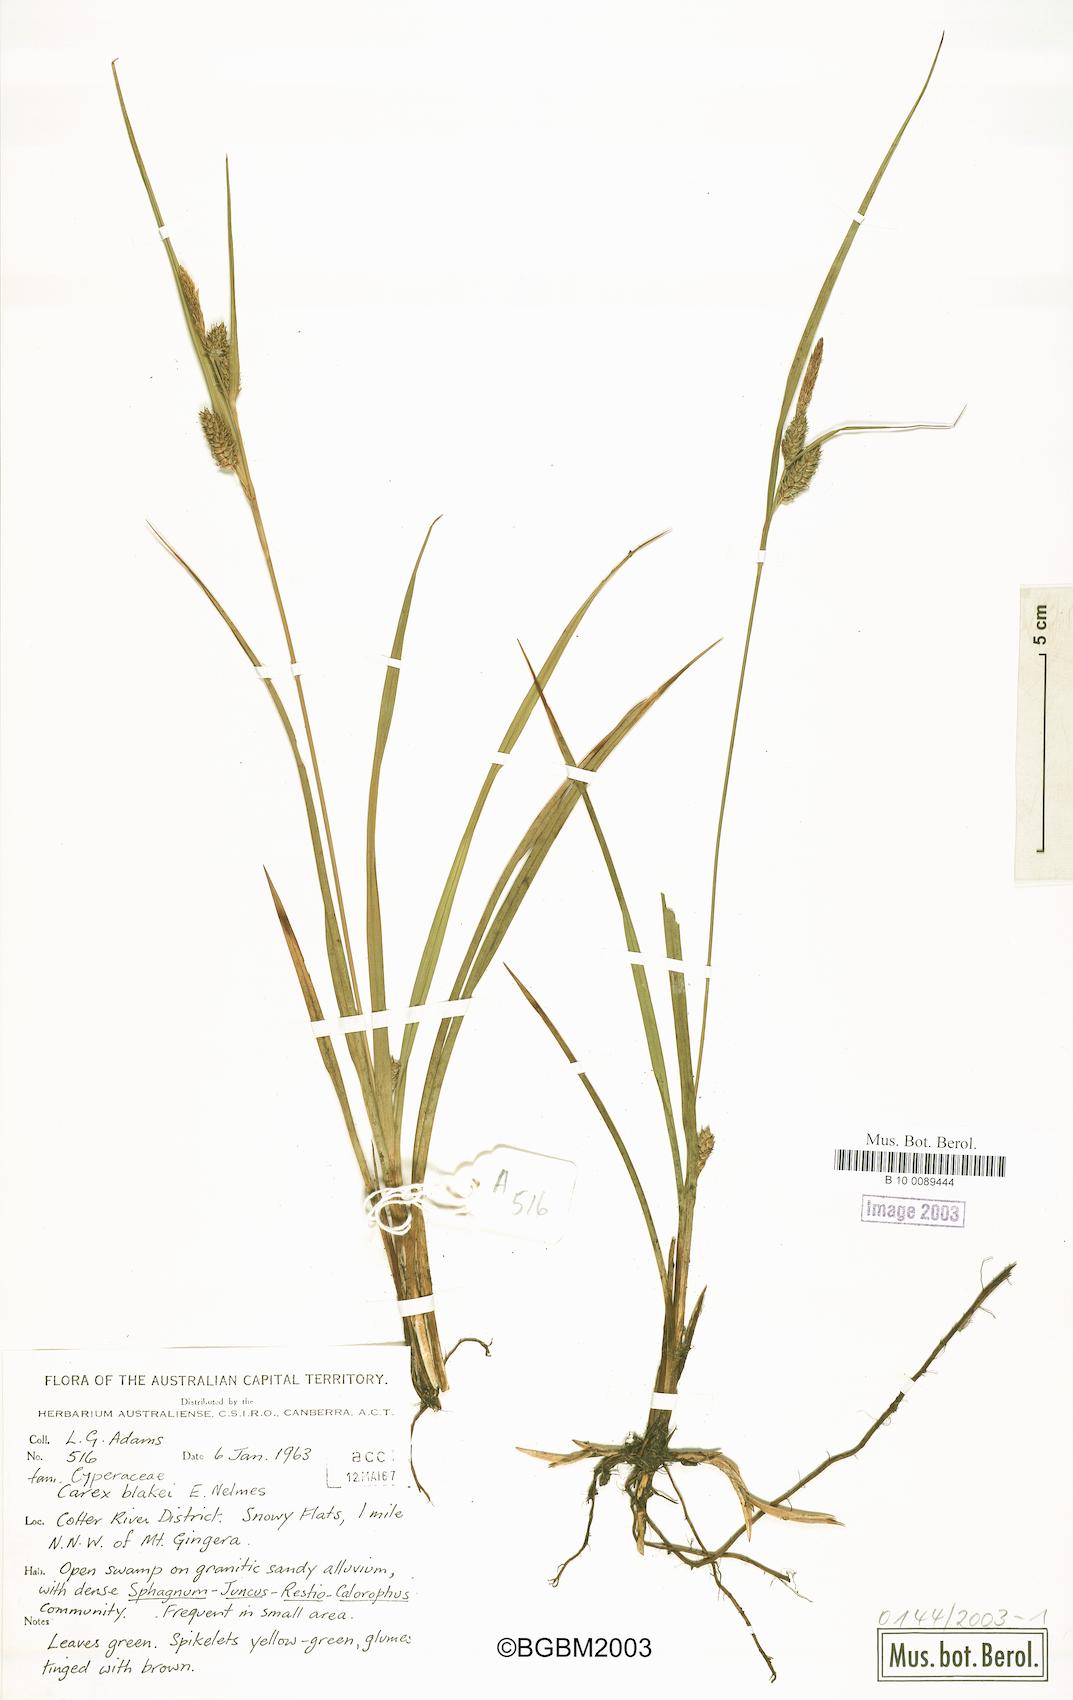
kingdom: Plantae
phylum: Tracheophyta
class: Liliopsida
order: Poales
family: Cyperaceae
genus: Carex
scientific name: Carex blakei
